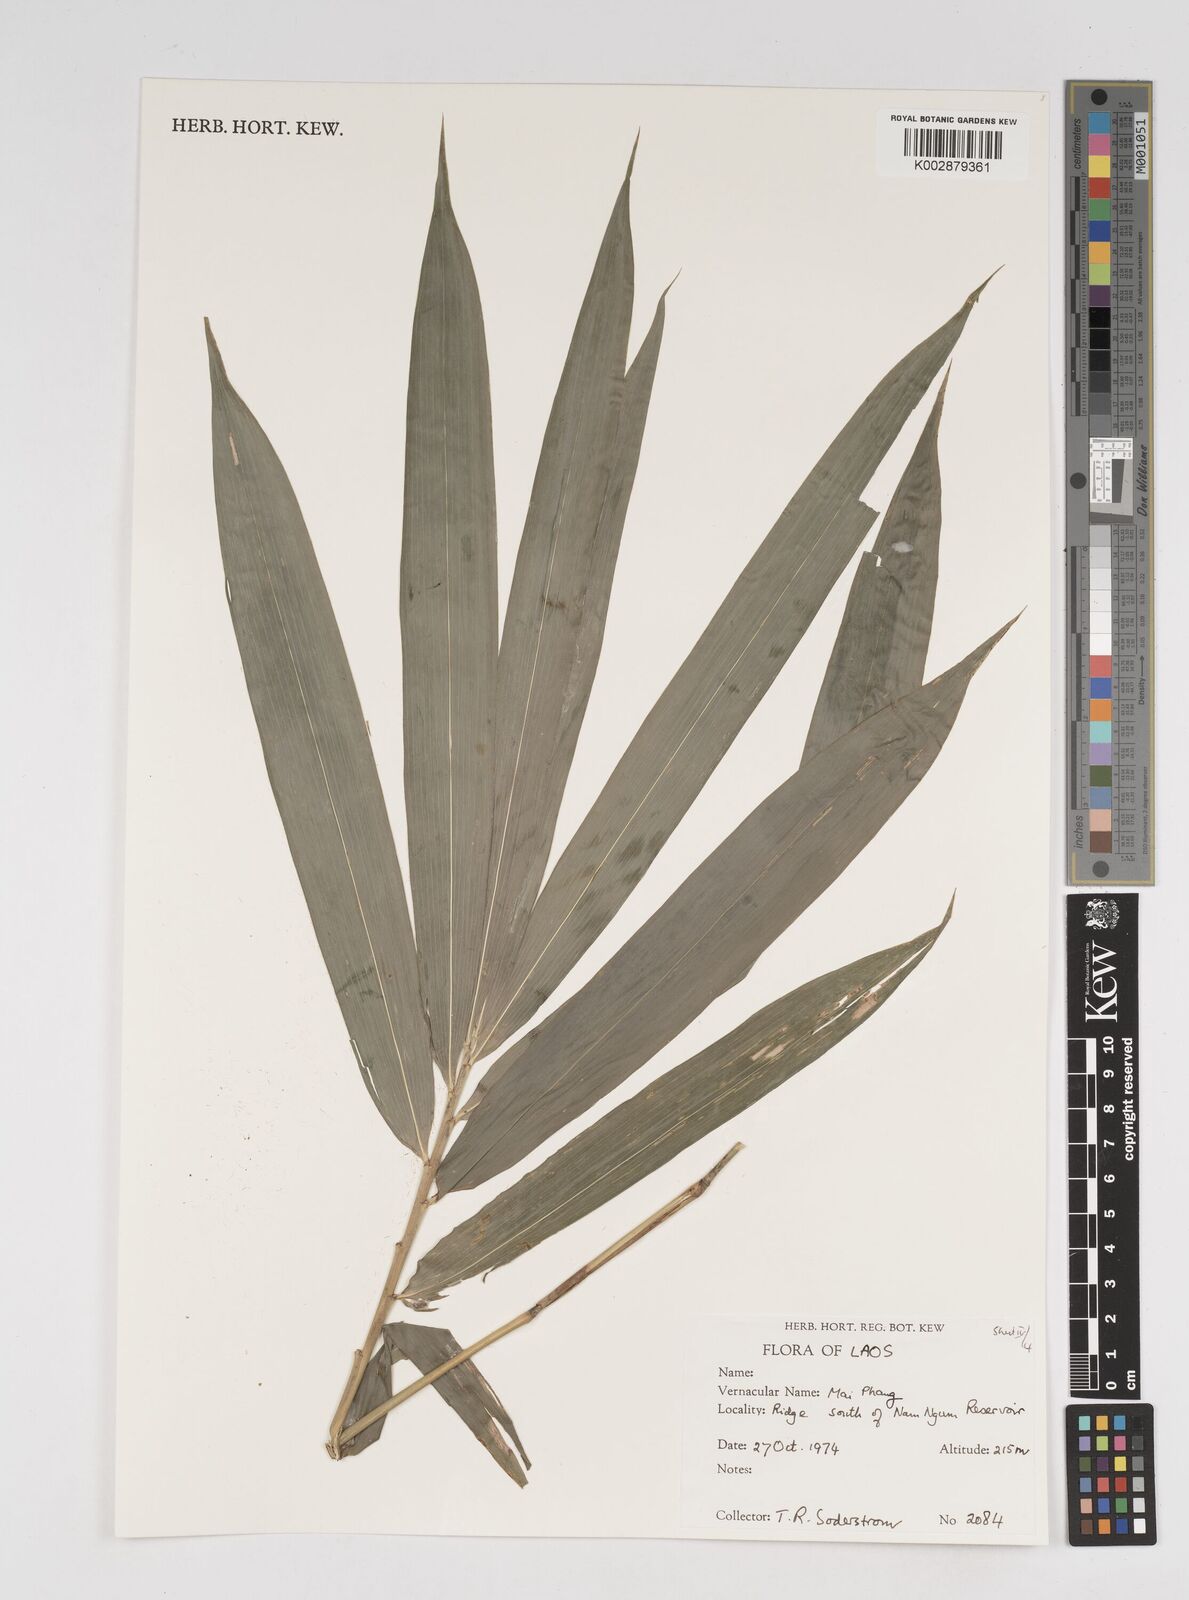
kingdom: Plantae
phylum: Tracheophyta
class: Liliopsida
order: Poales
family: Poaceae
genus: Dendrocalamus
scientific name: Dendrocalamus
